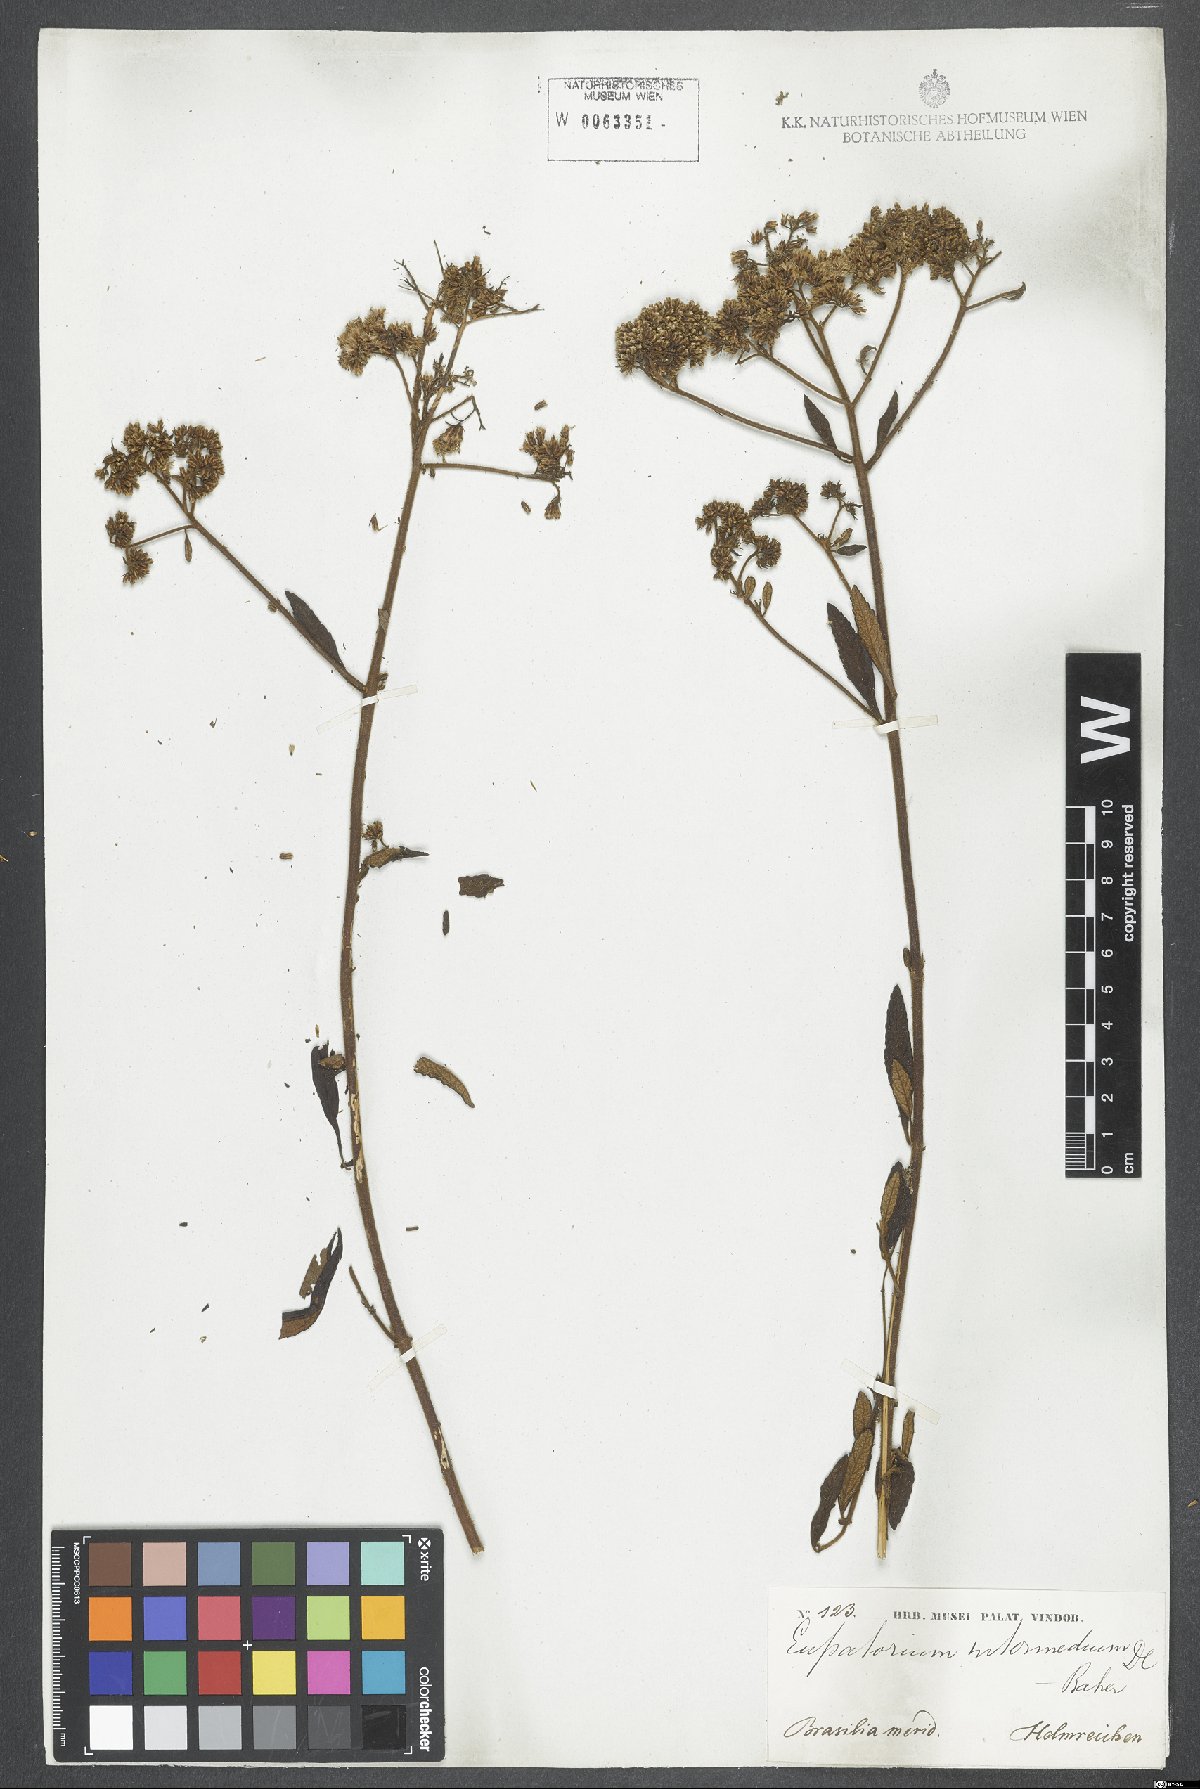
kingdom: Plantae
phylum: Tracheophyta
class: Magnoliopsida
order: Asterales
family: Asteraceae
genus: Grazielia
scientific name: Grazielia intermedia
